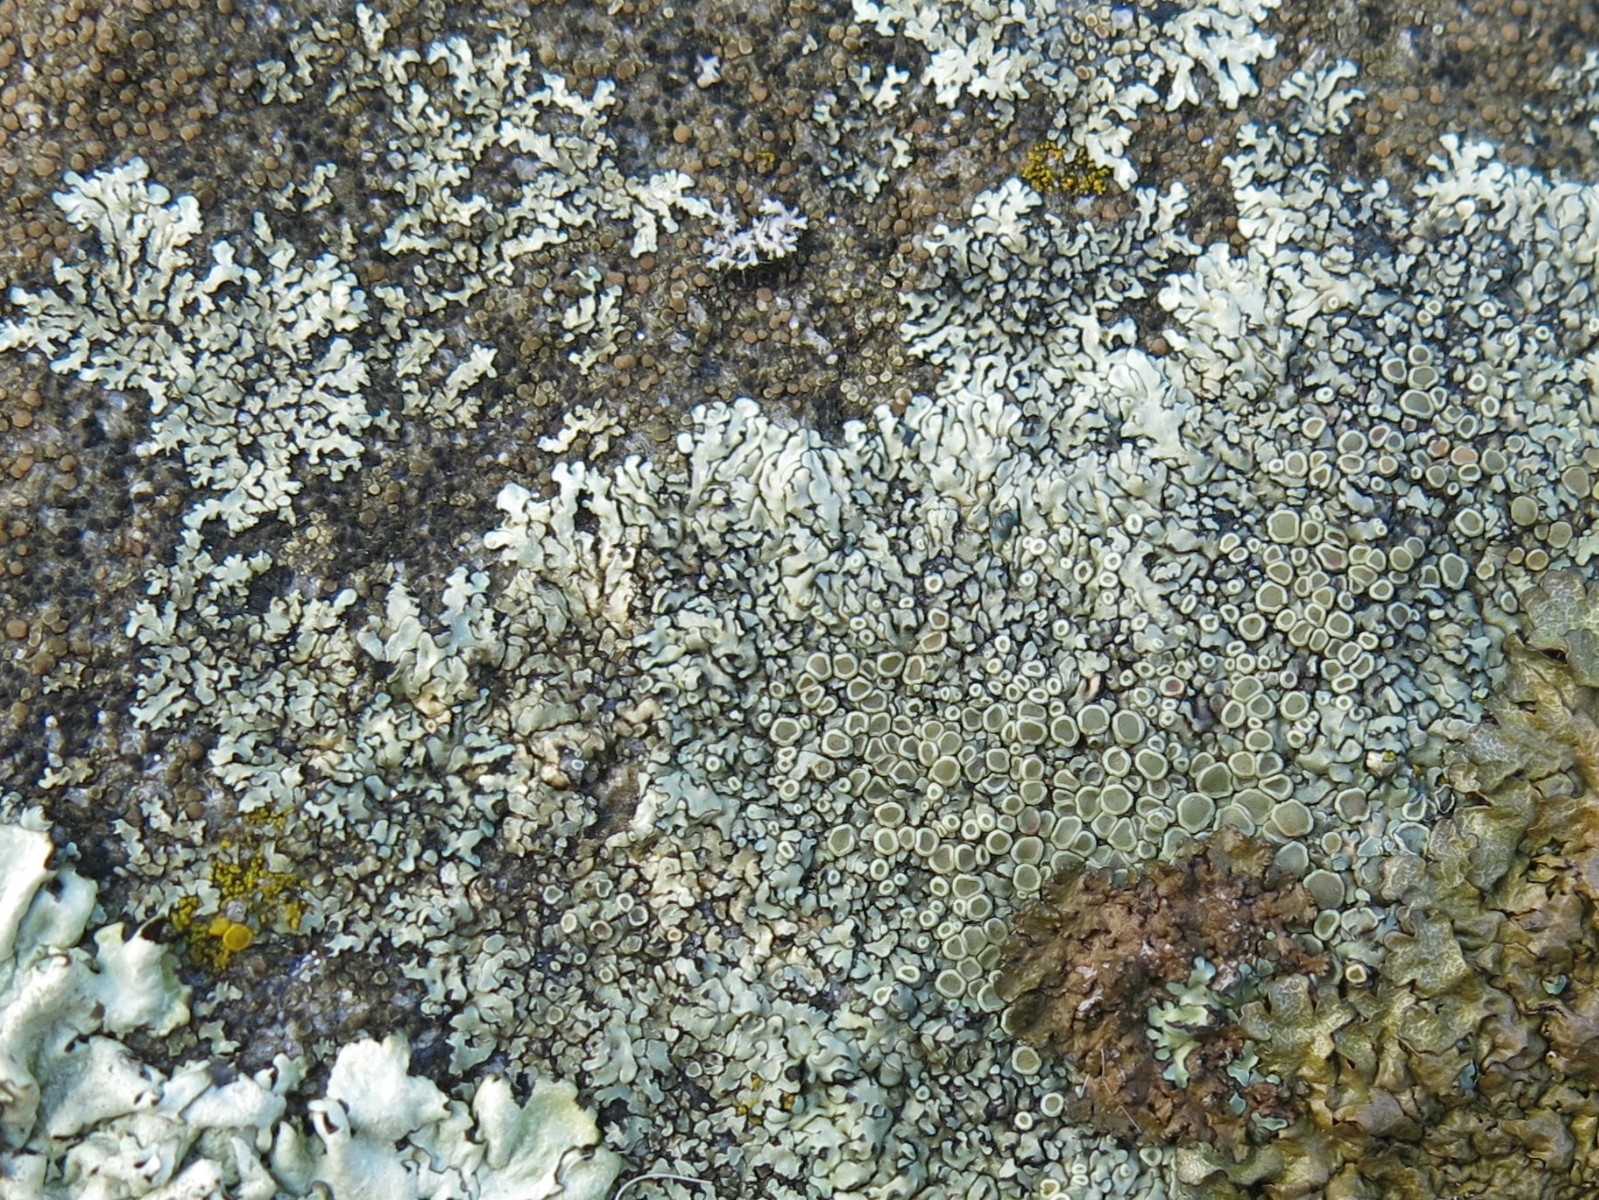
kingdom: Fungi
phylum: Ascomycota
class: Lecanoromycetes
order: Lecanorales
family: Lecanoraceae
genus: Protoparmeliopsis
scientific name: Protoparmeliopsis muralis
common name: randfliget kantskivelav
